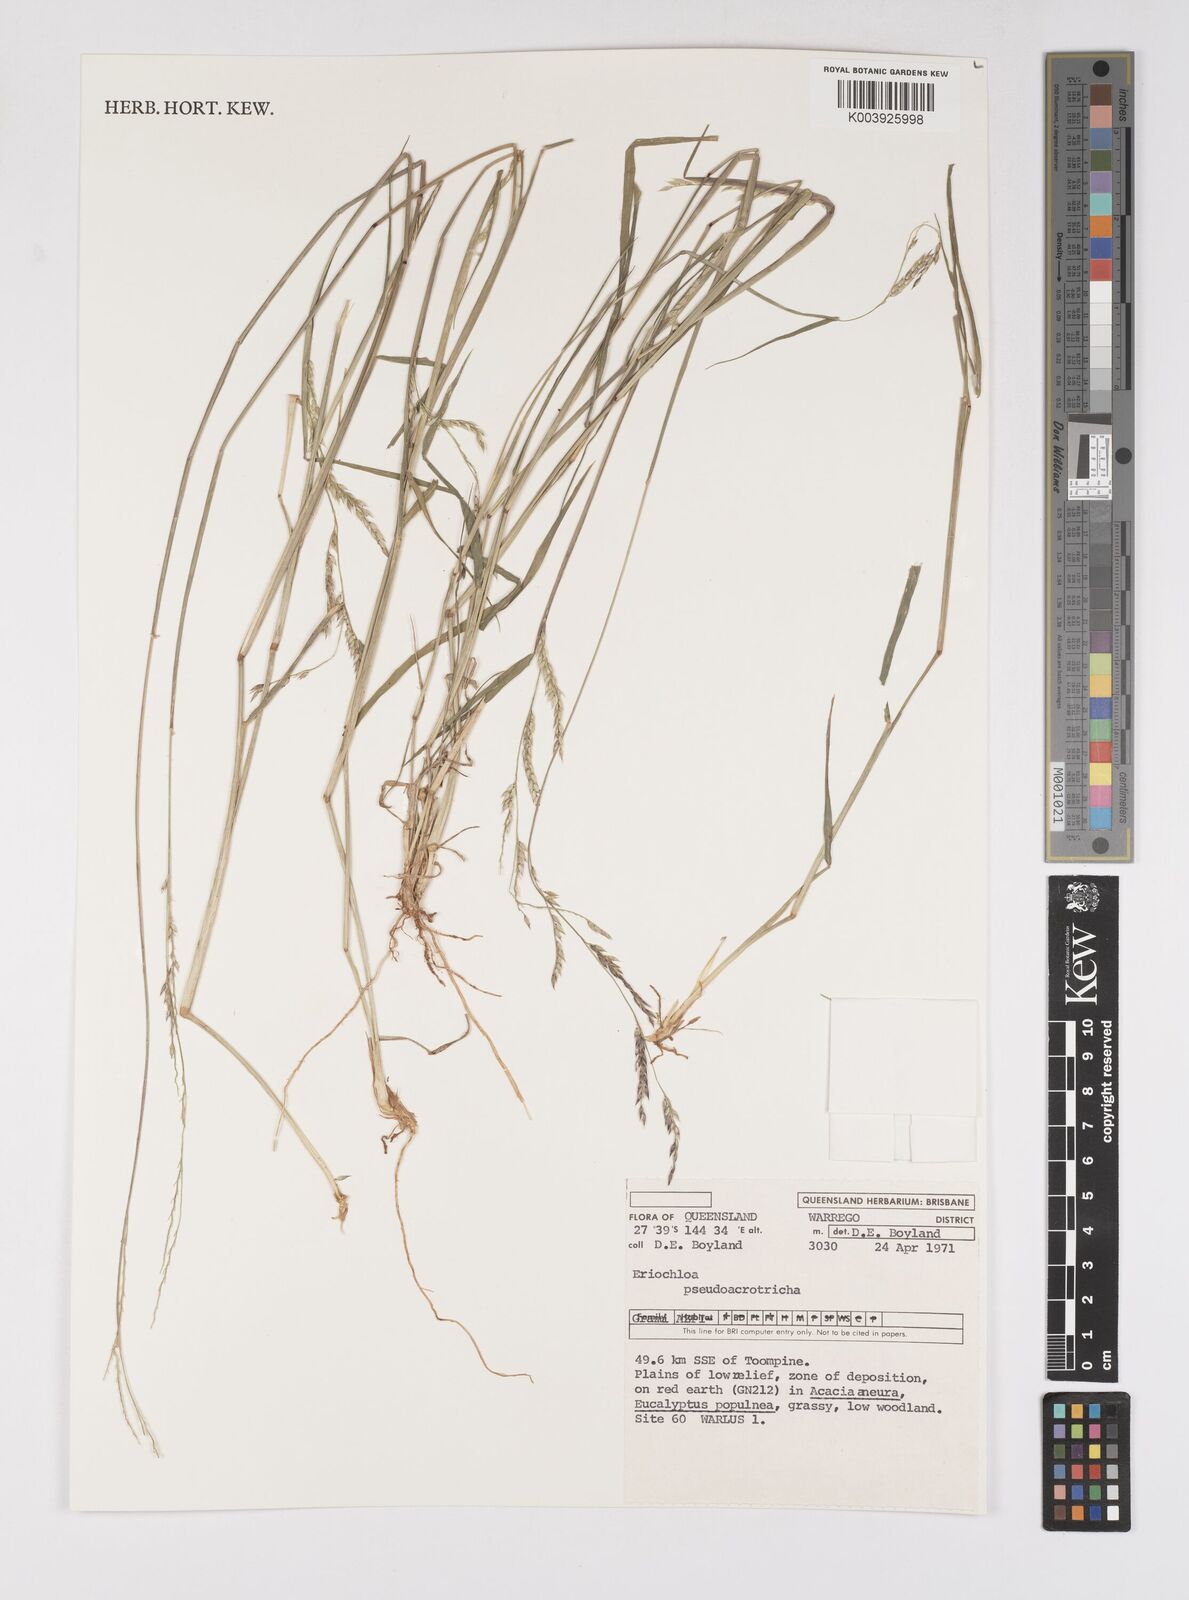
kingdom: Plantae
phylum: Tracheophyta
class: Liliopsida
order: Poales
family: Poaceae
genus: Eriochloa
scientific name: Eriochloa pseudoacrotricha
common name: Perennial cup-grass
